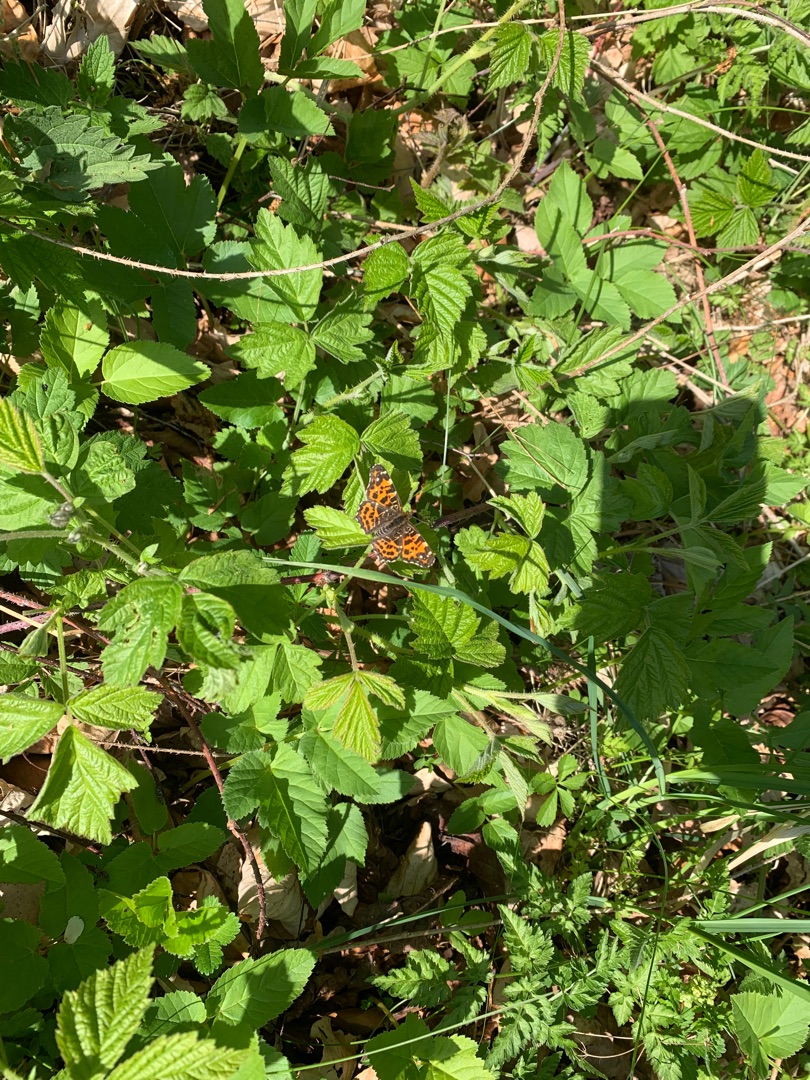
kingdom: Animalia
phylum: Arthropoda
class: Insecta
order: Lepidoptera
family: Nymphalidae
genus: Araschnia
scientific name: Araschnia levana
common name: Nældesommerfugl
